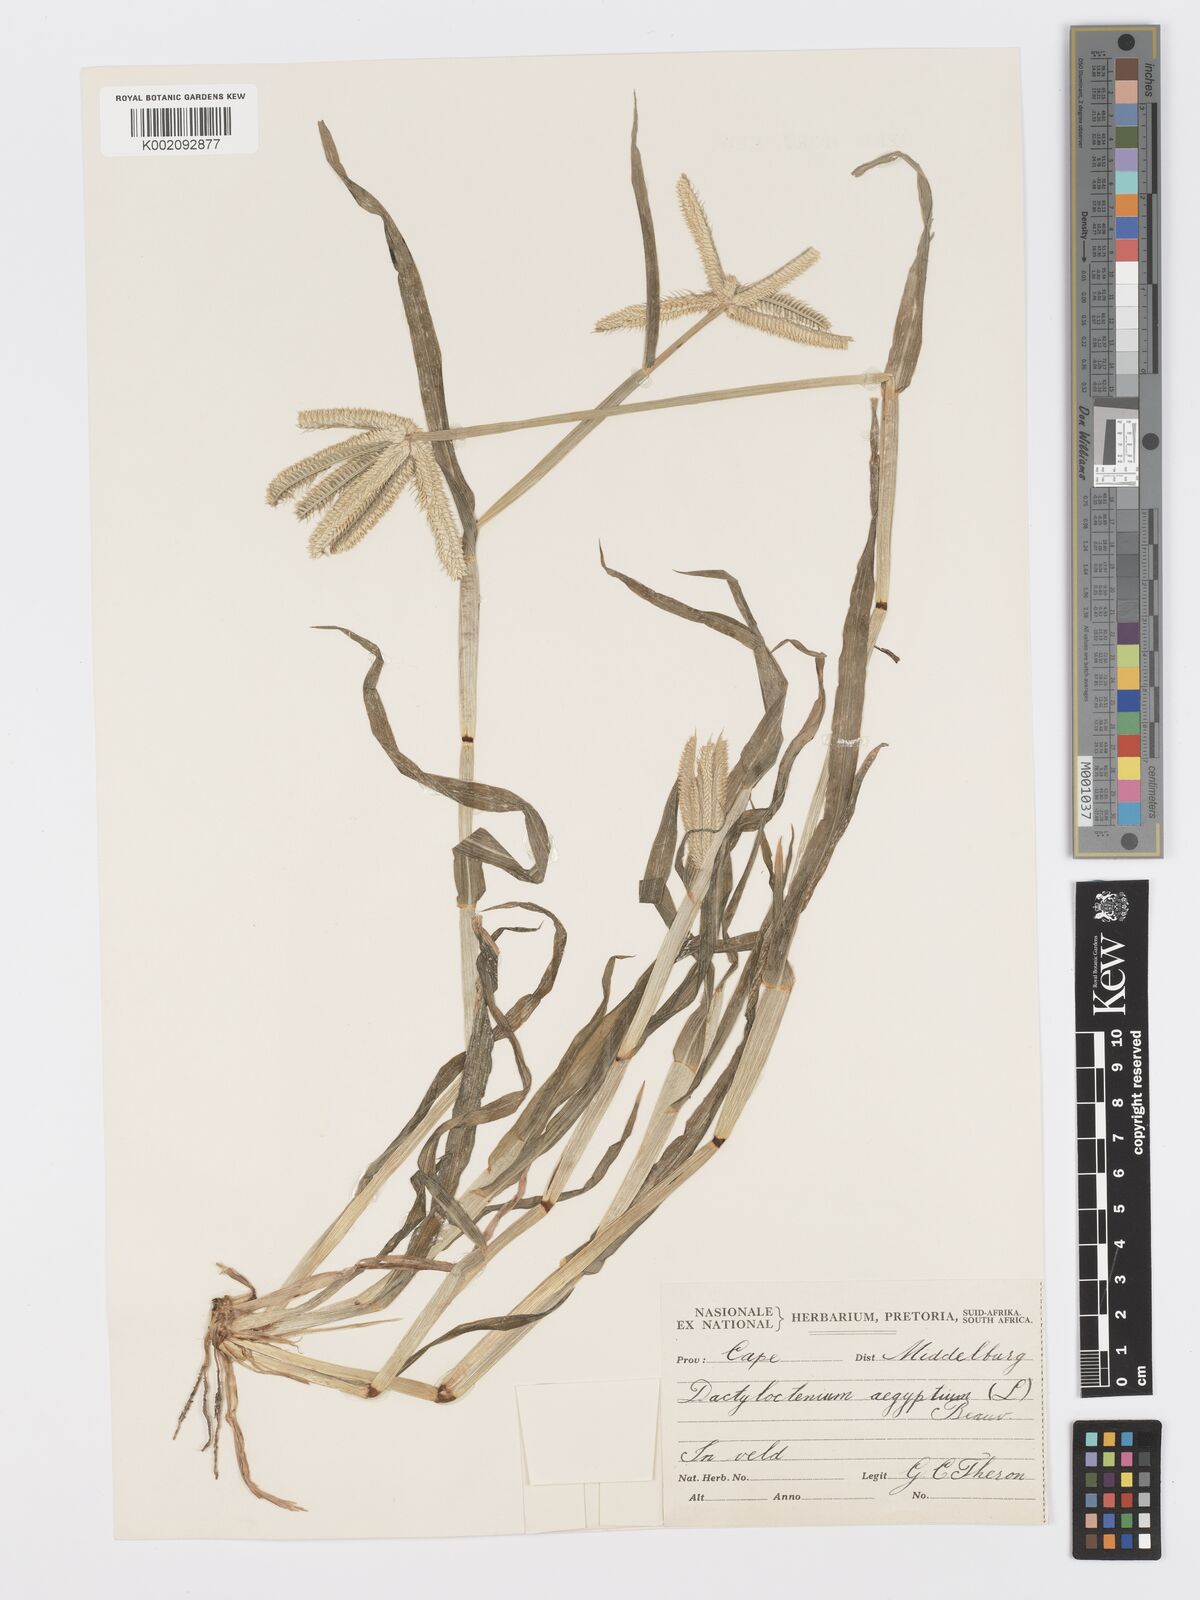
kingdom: Plantae
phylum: Tracheophyta
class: Liliopsida
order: Poales
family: Poaceae
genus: Dactyloctenium
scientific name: Dactyloctenium aegyptium
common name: Egyptian grass
